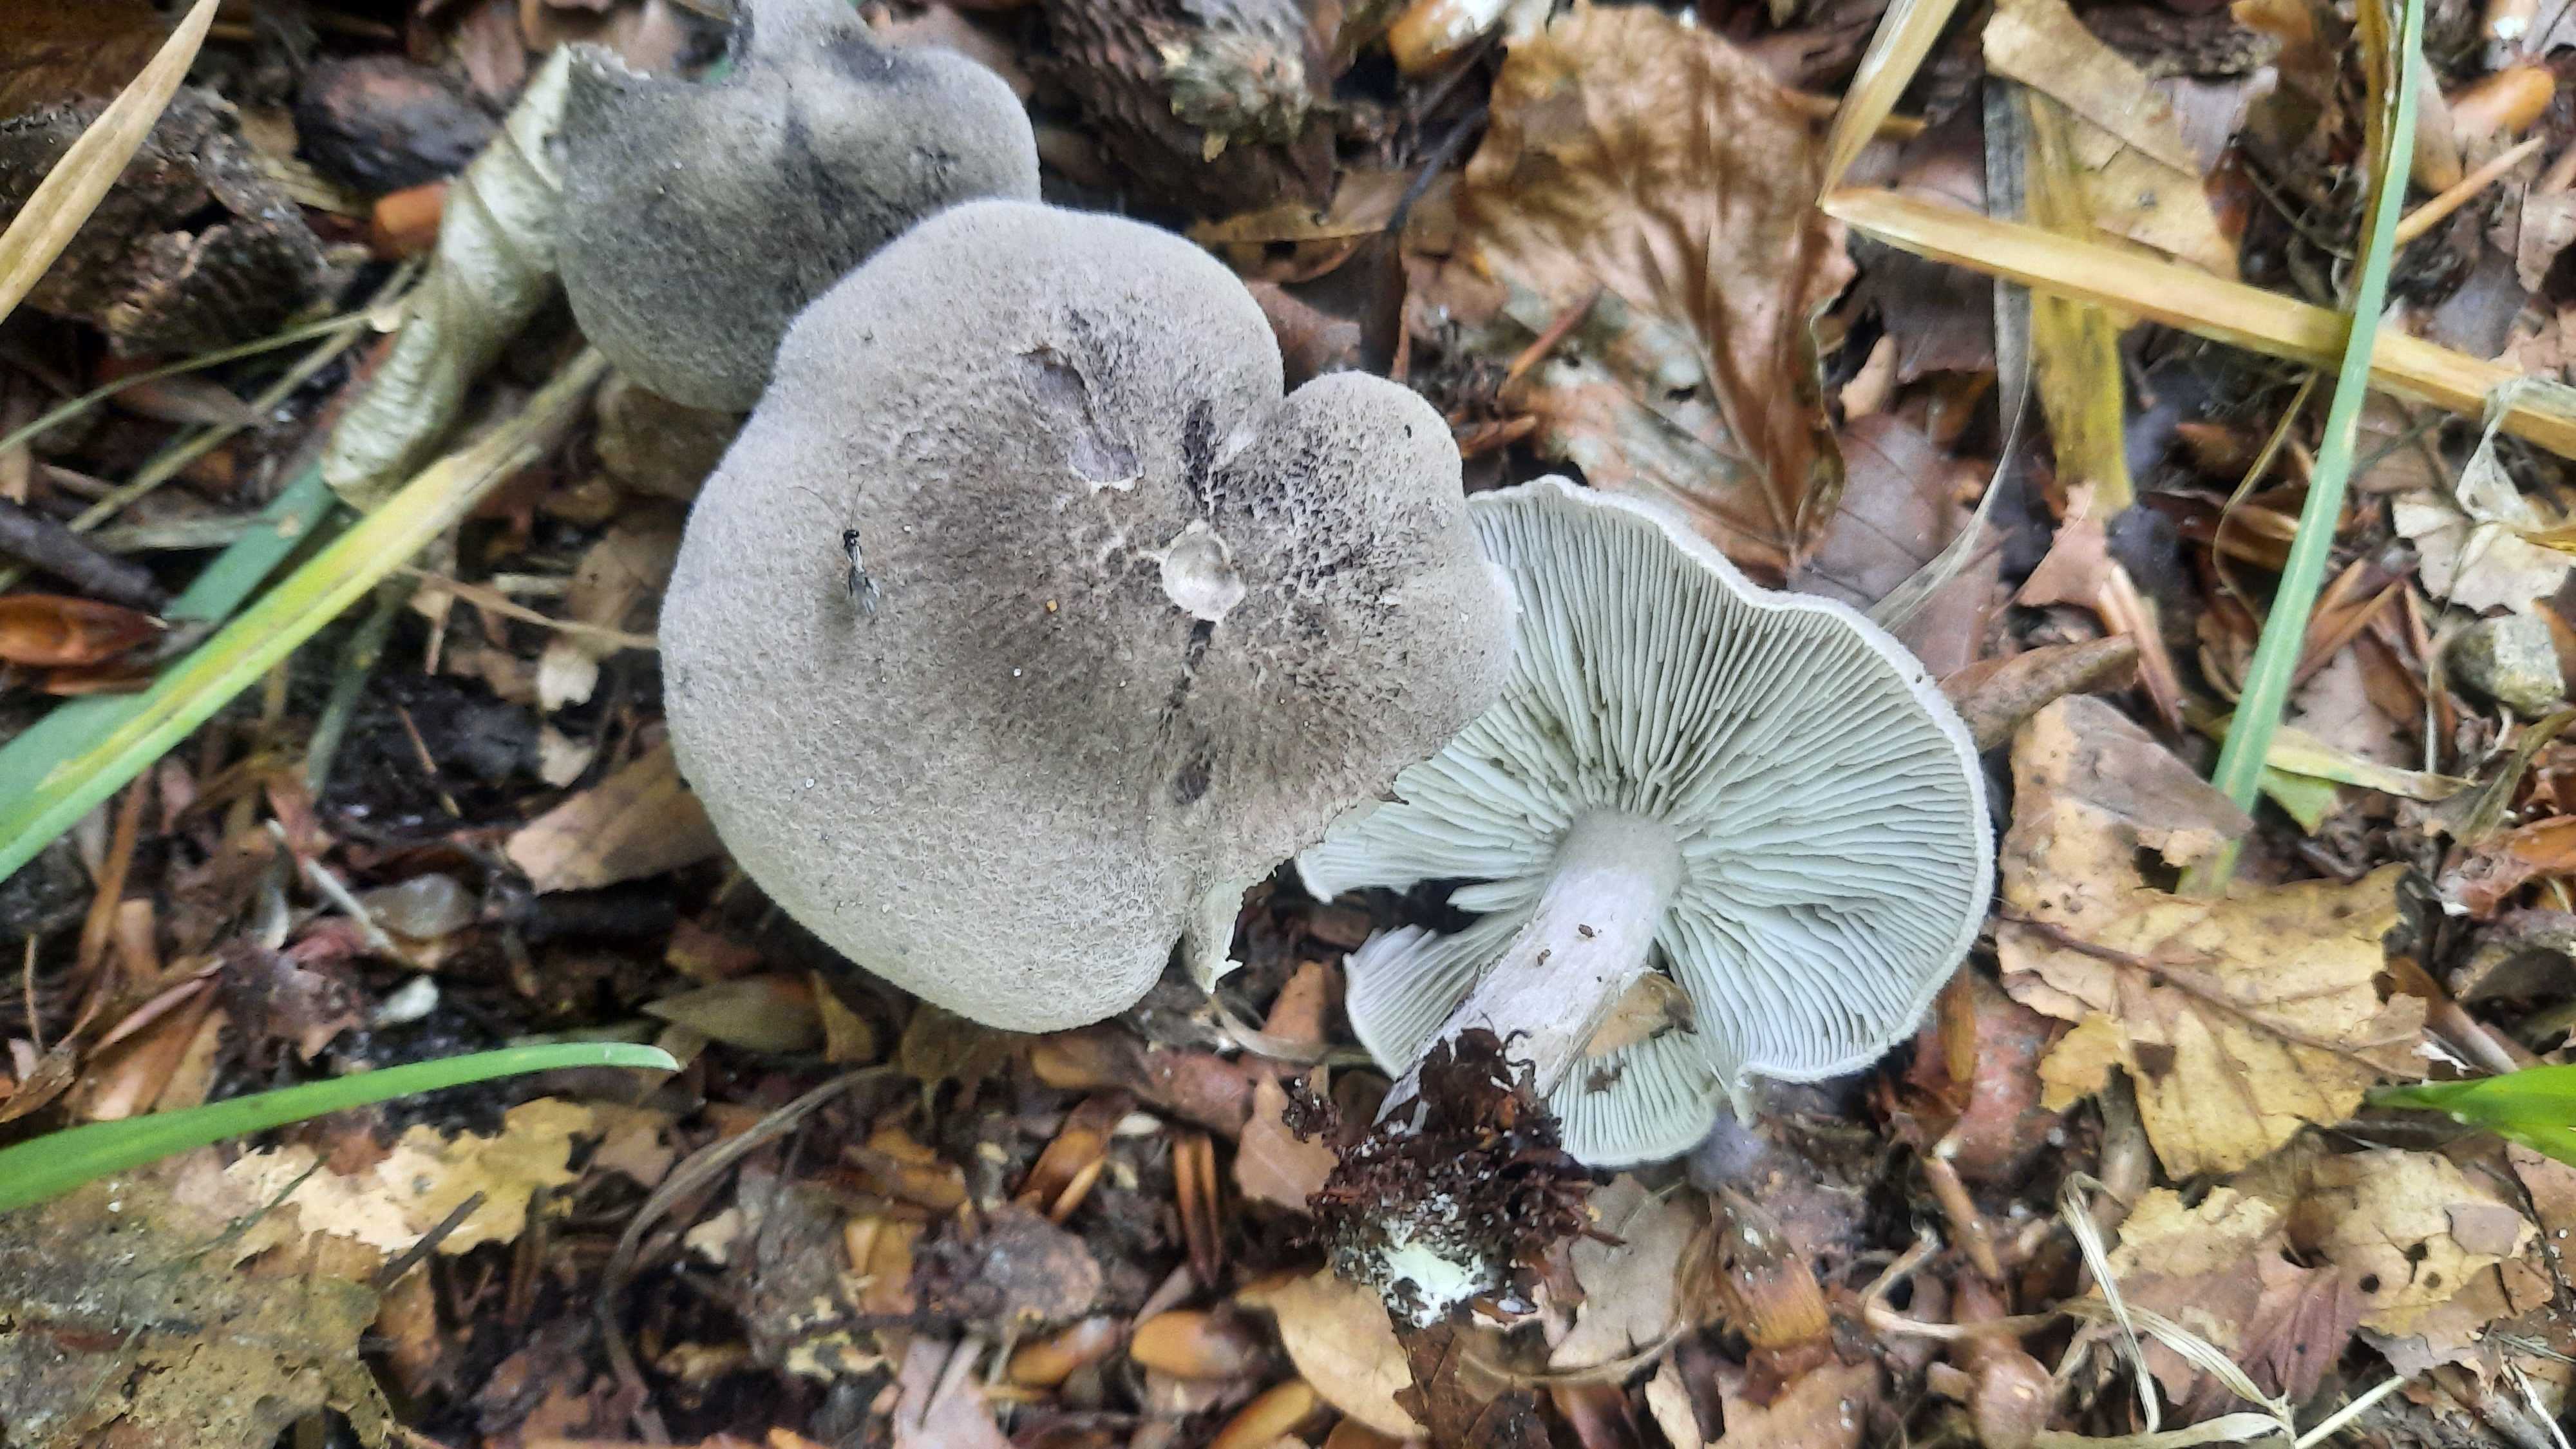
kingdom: Fungi
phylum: Basidiomycota
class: Agaricomycetes
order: Agaricales
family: Tricholomataceae
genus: Tricholoma
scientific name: Tricholoma scalpturatum
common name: gulplettet ridderhat
